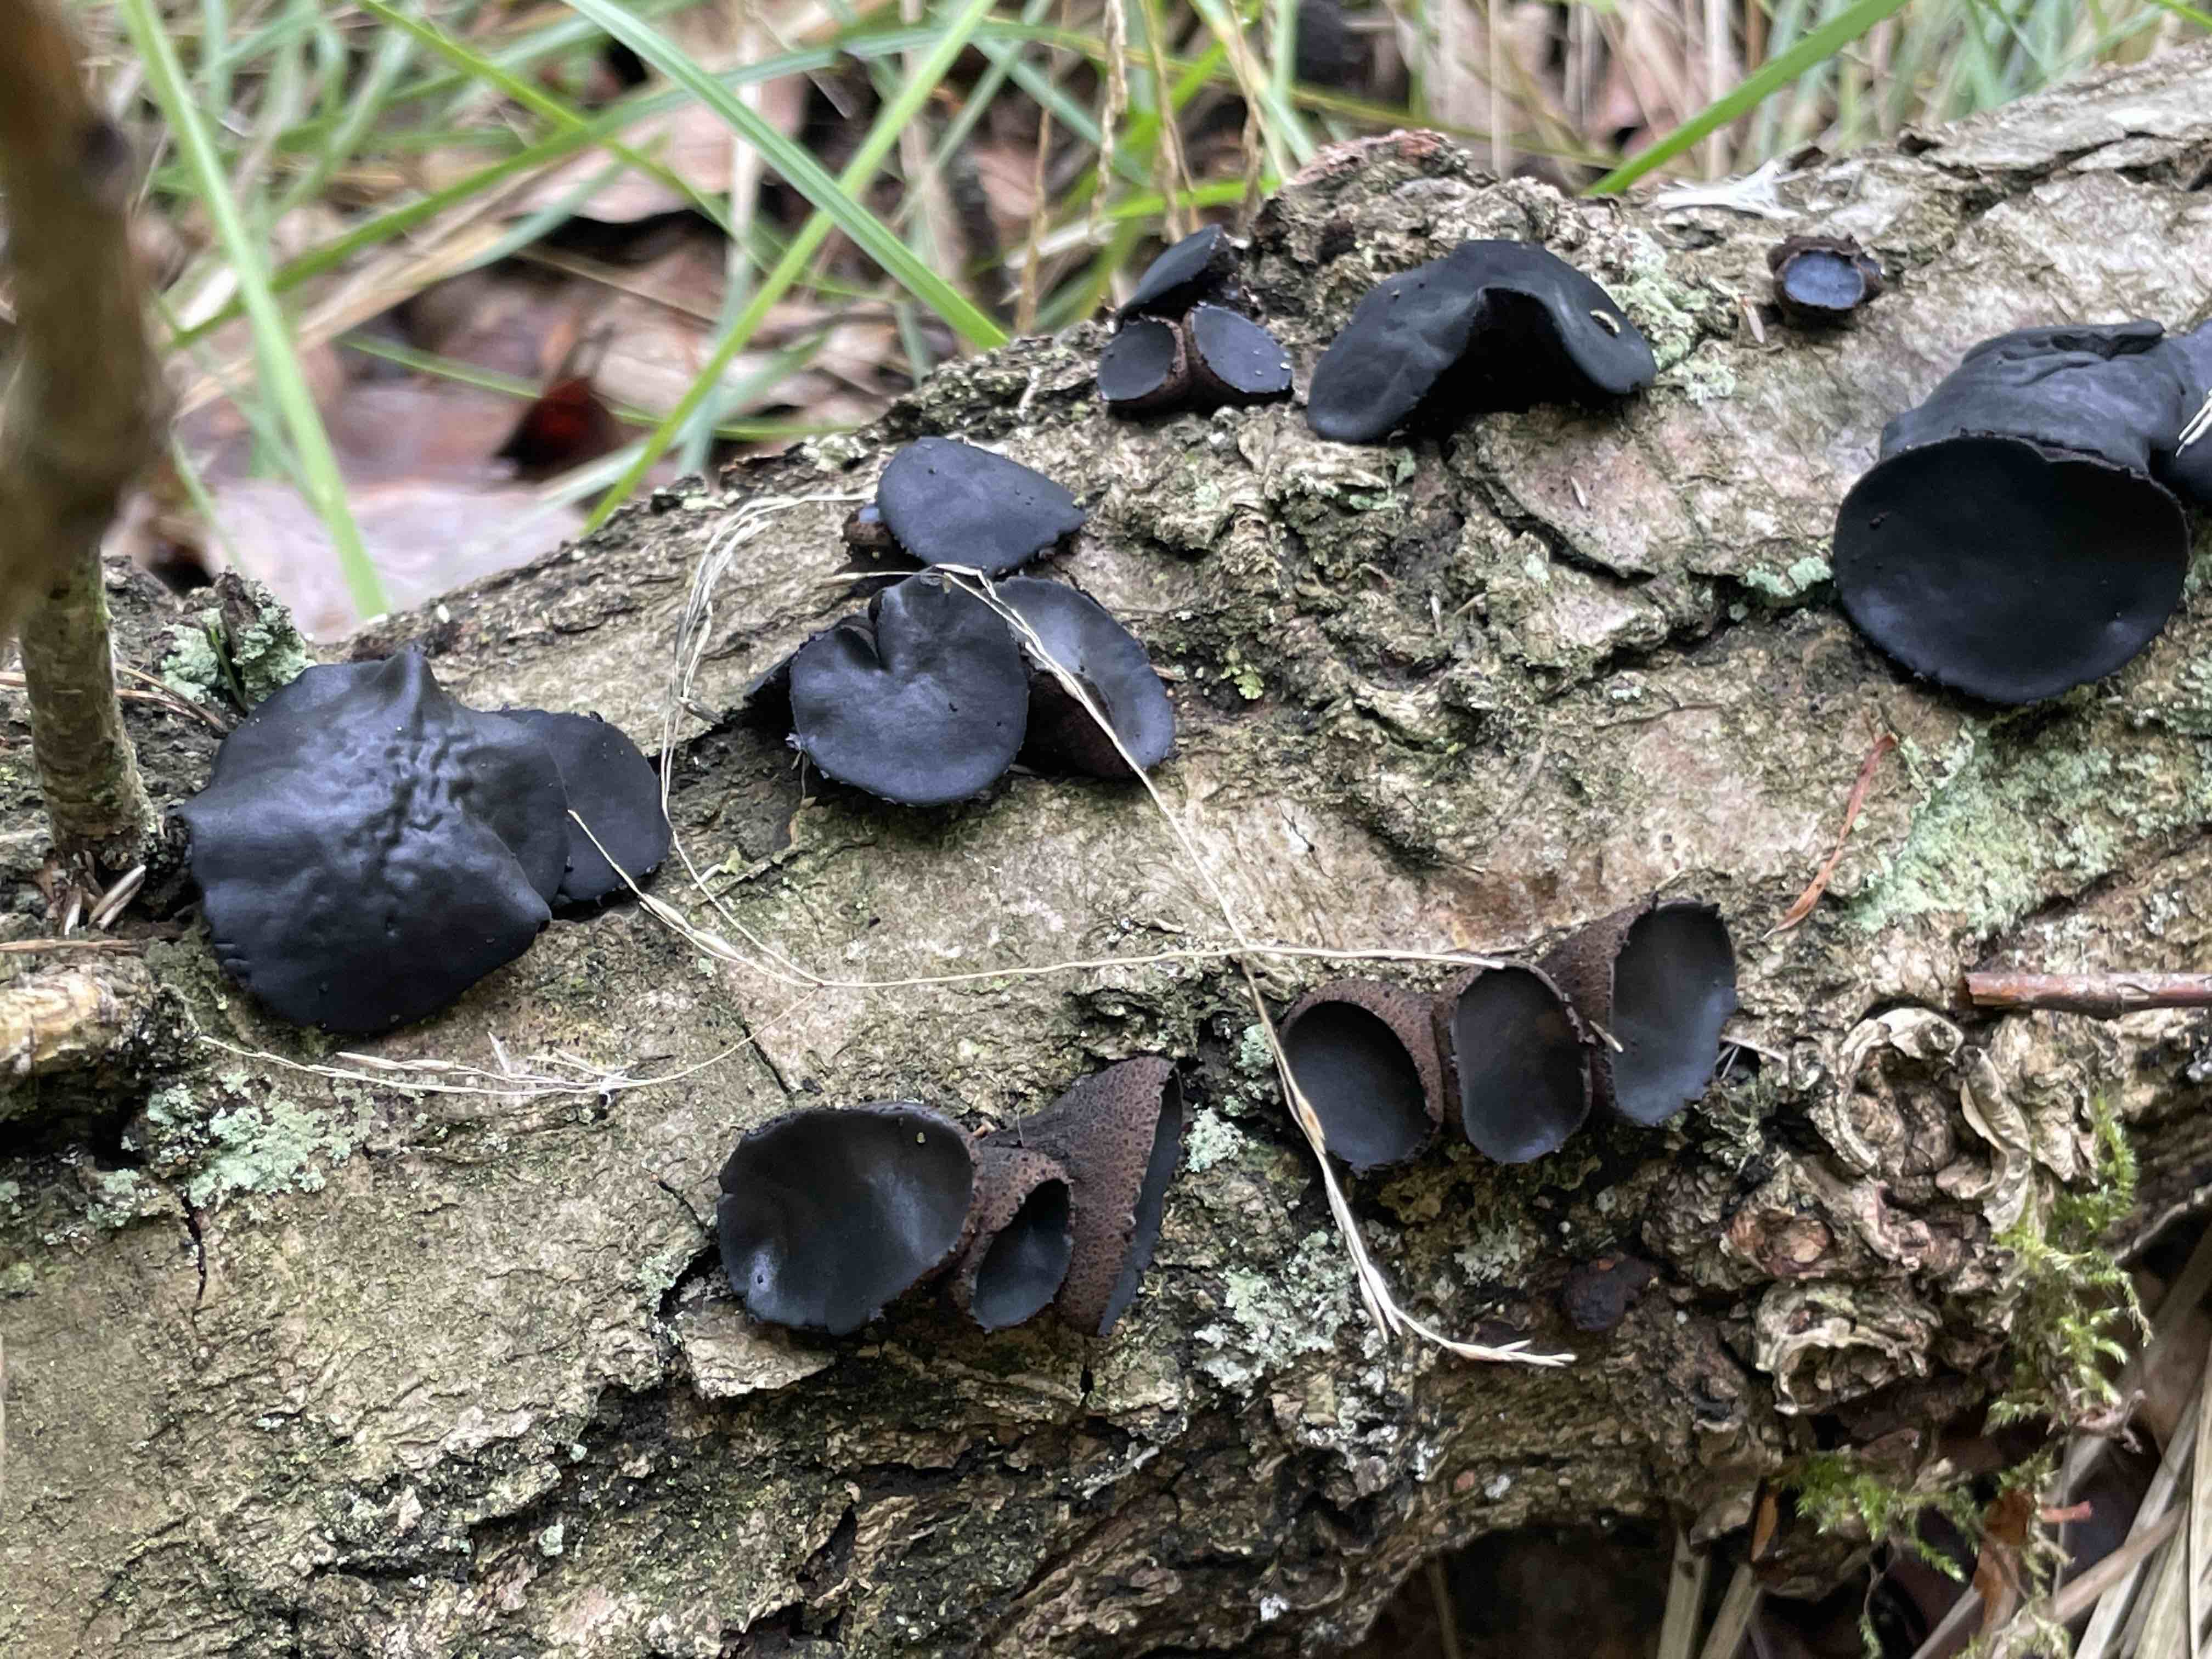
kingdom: Fungi
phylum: Ascomycota
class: Leotiomycetes
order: Phacidiales
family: Phacidiaceae
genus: Bulgaria
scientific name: Bulgaria inquinans
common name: afsmittende topsvamp
